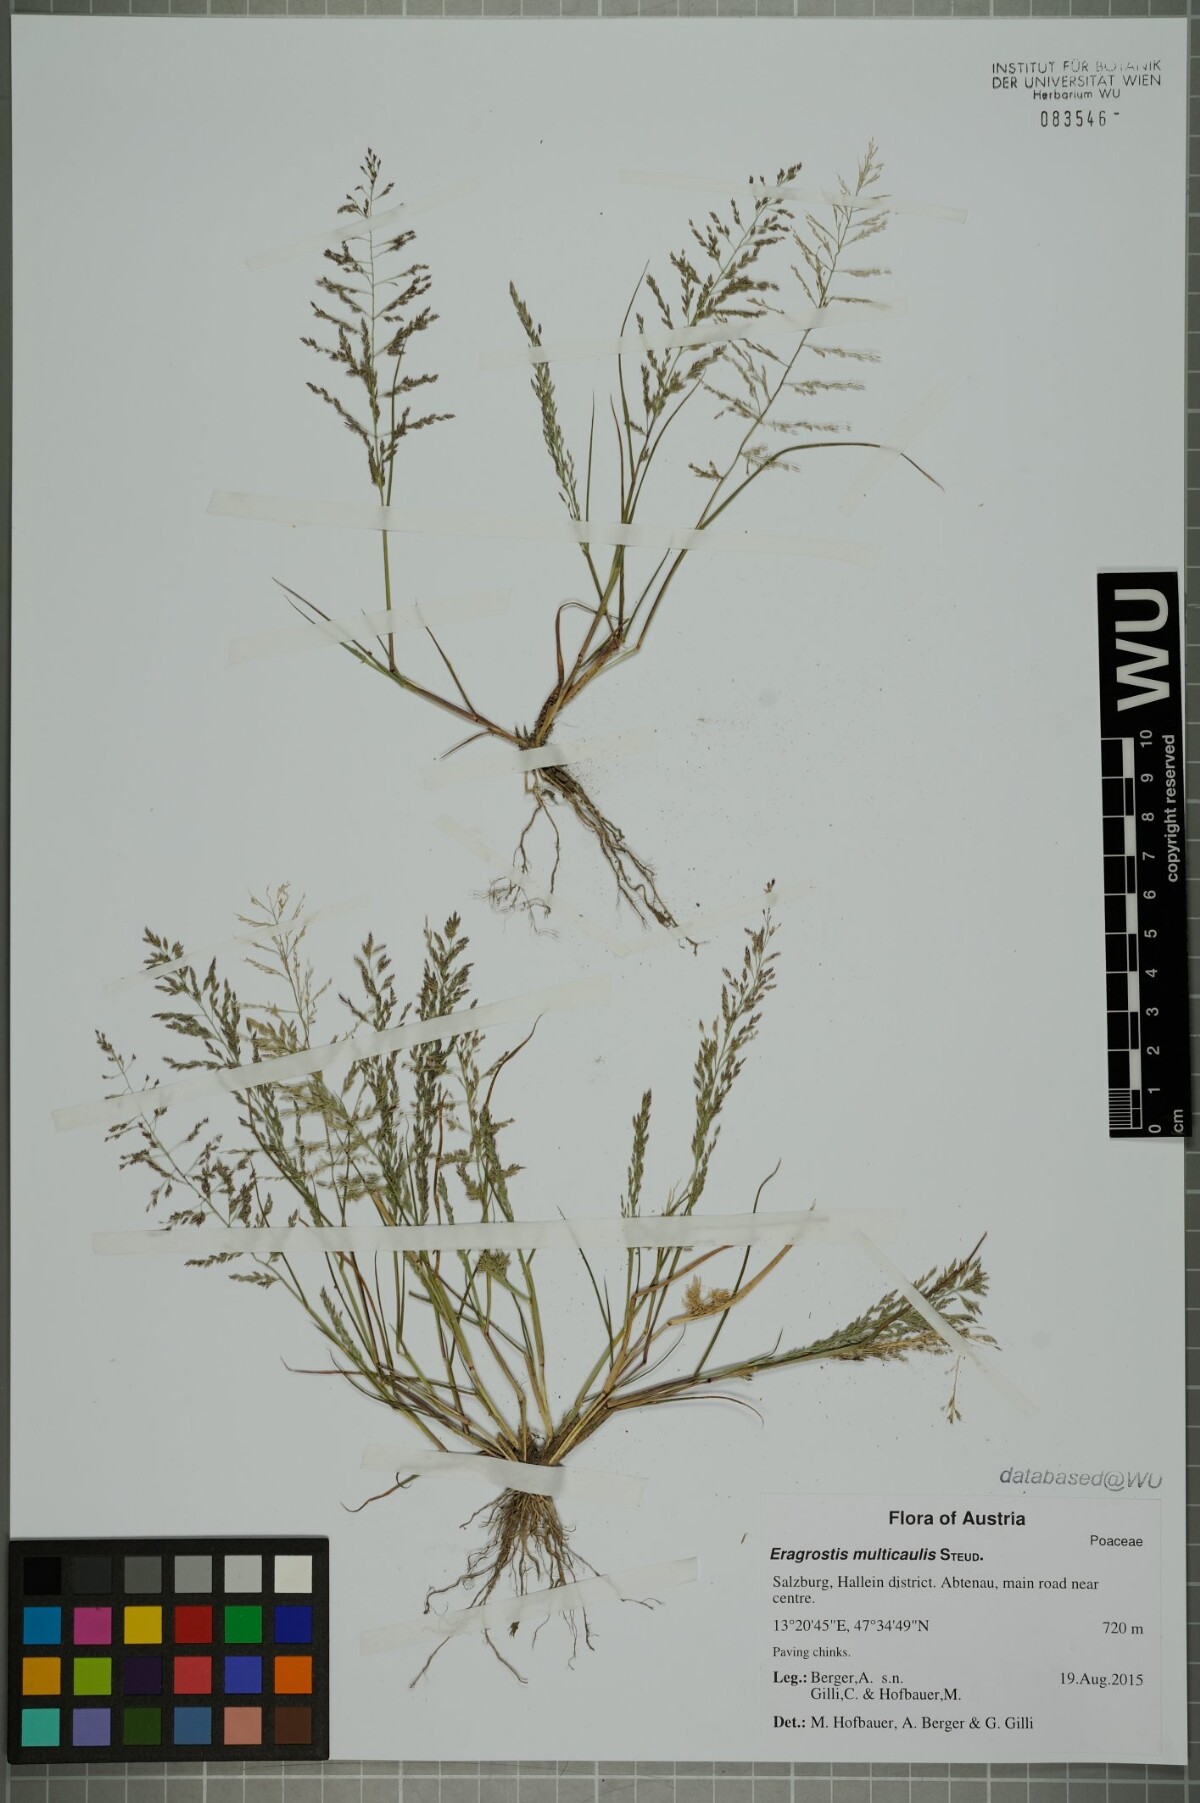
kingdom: Plantae
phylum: Tracheophyta
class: Liliopsida
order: Poales
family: Poaceae
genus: Eragrostis
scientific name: Eragrostis multicaulis
